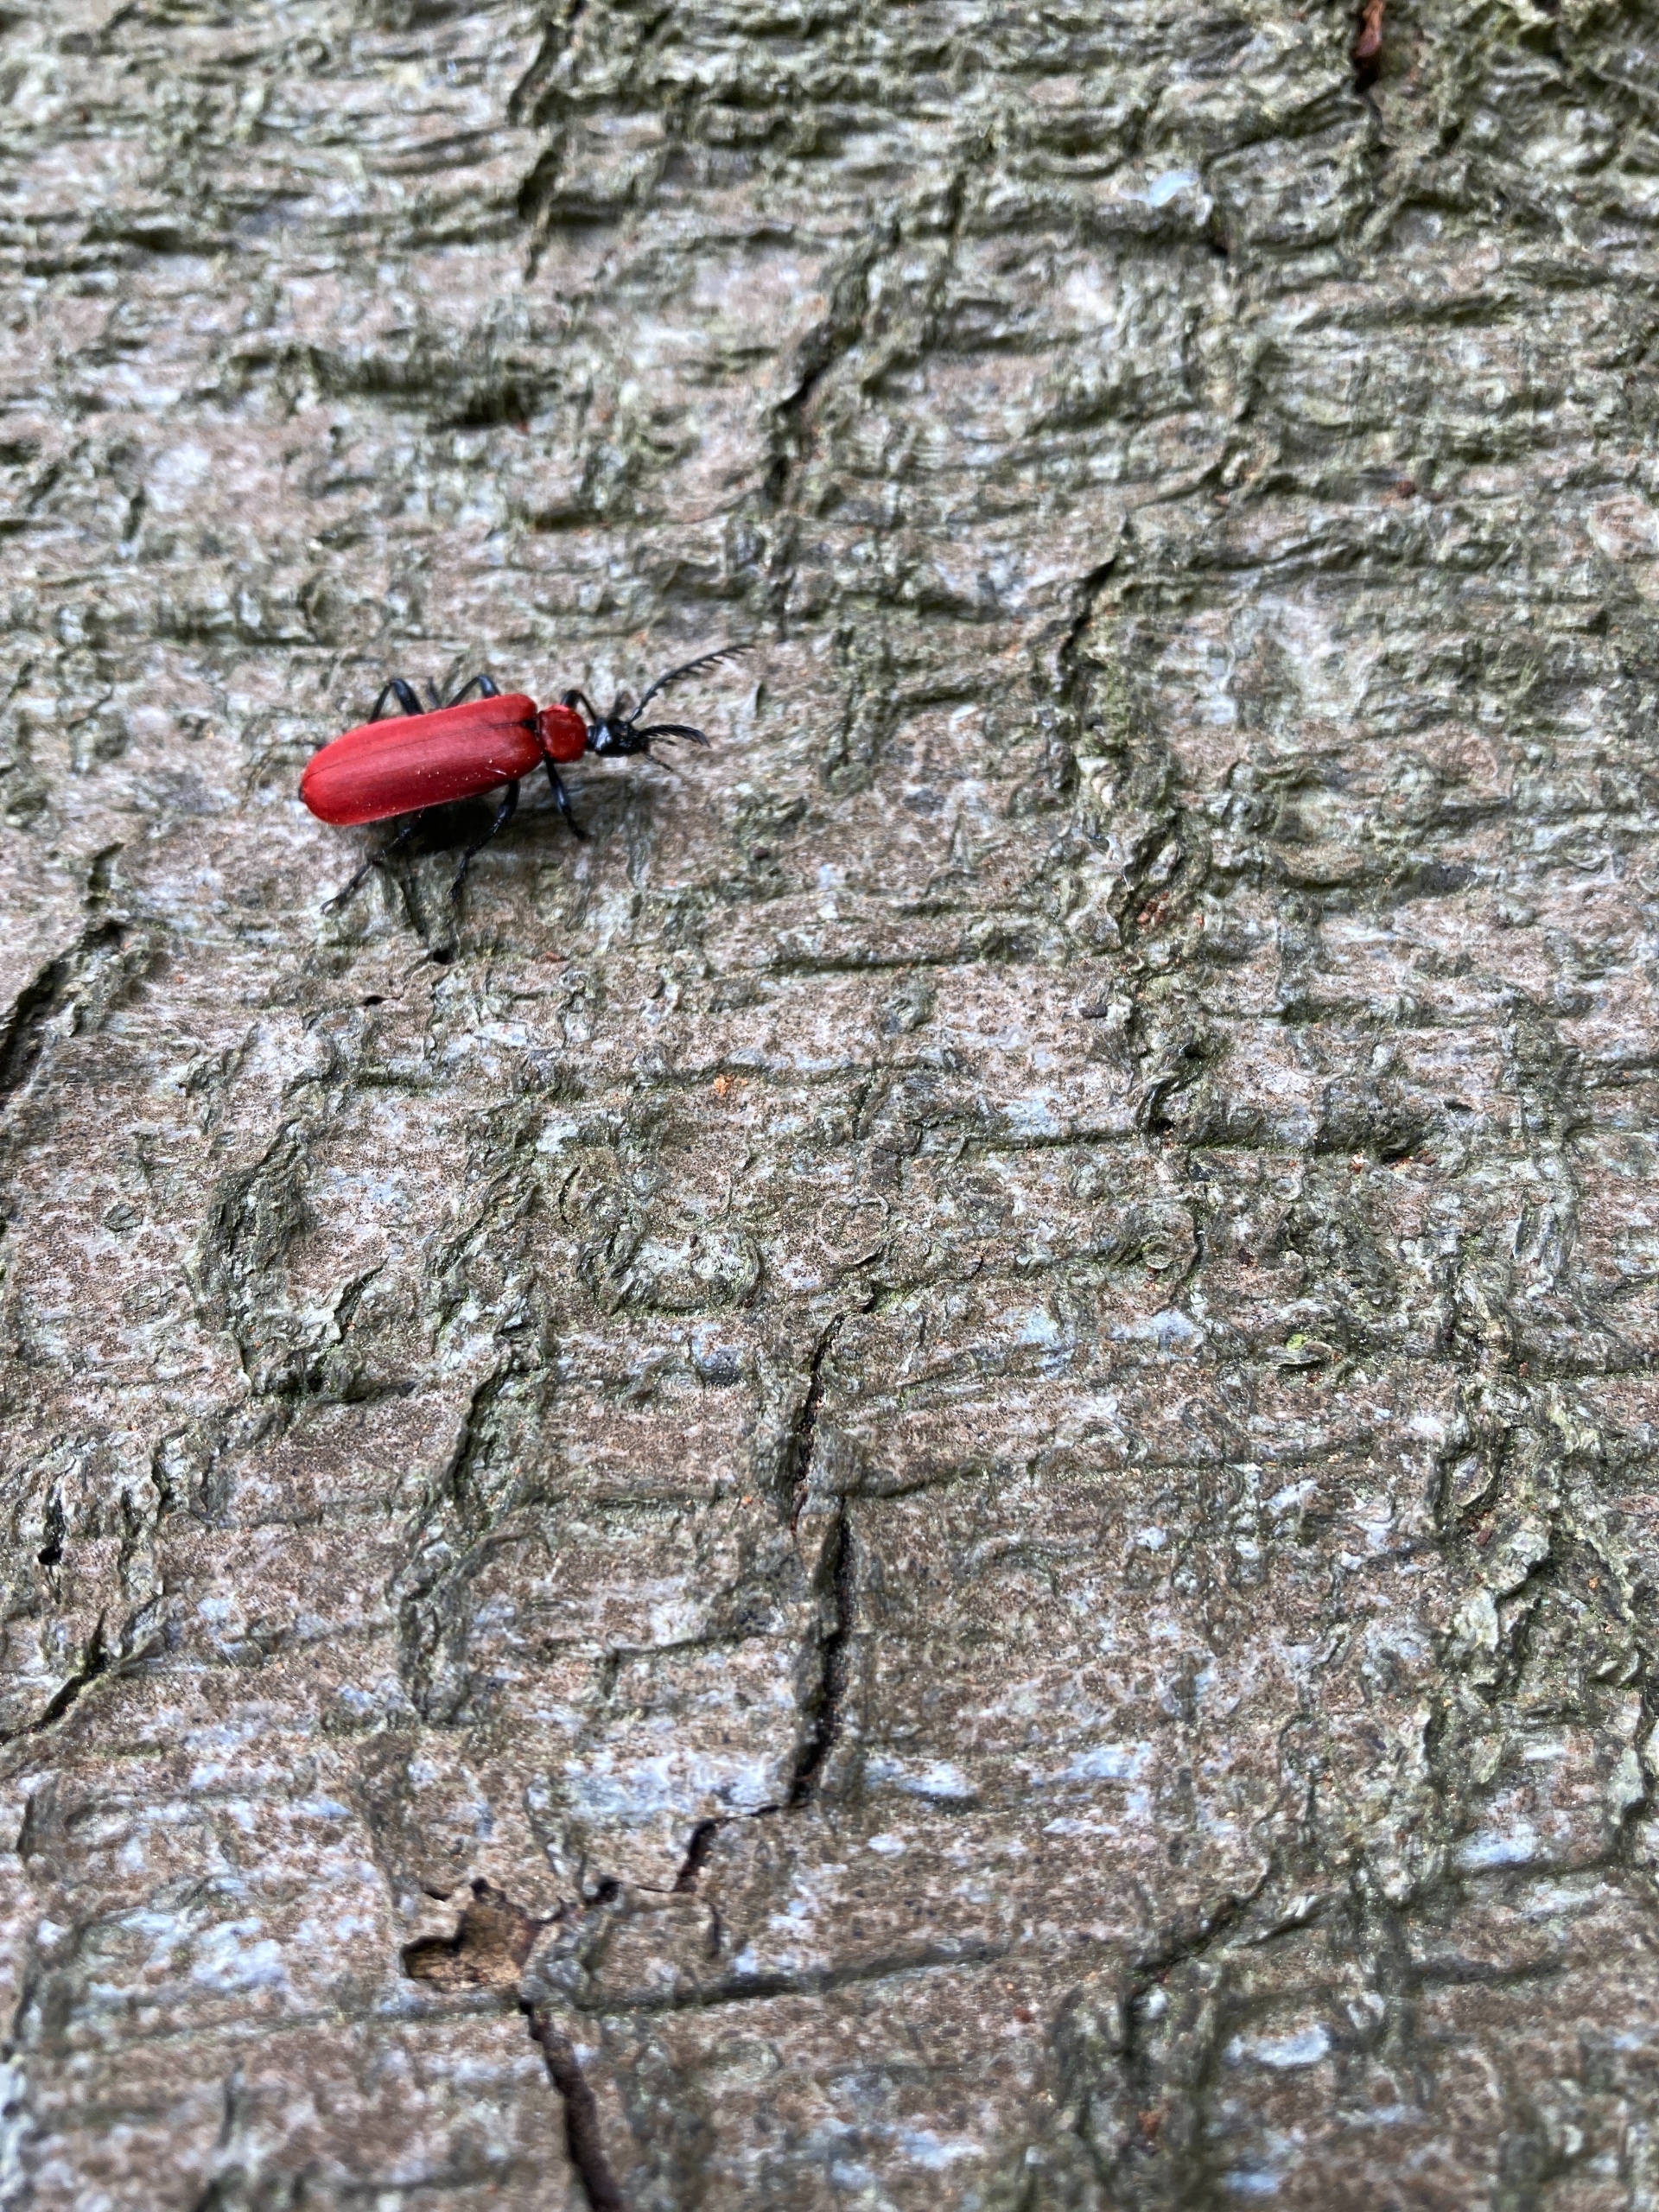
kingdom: Animalia
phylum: Arthropoda
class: Insecta
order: Coleoptera
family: Pyrochroidae
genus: Pyrochroa
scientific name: Pyrochroa coccinea
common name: Sorthovedet kardinalbille
